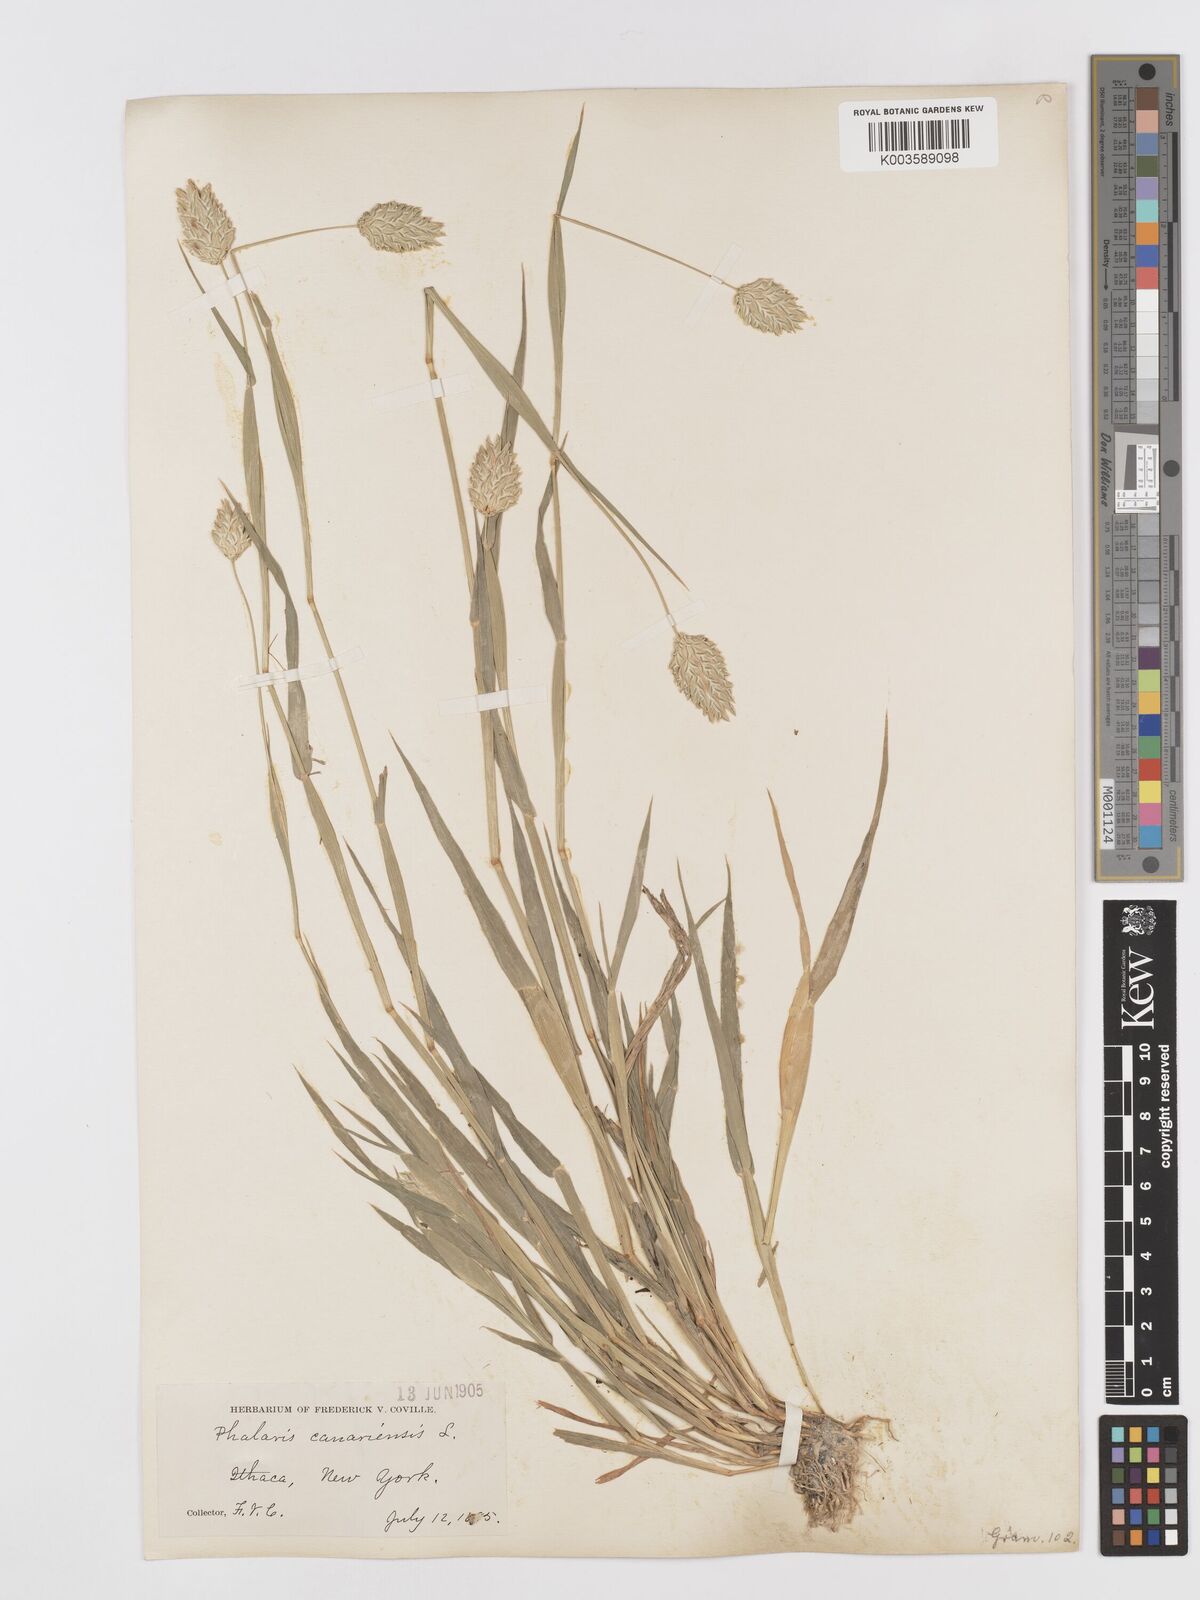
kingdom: Plantae
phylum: Tracheophyta
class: Liliopsida
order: Poales
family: Poaceae
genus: Phalaris
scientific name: Phalaris canariensis
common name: Annual canarygrass
